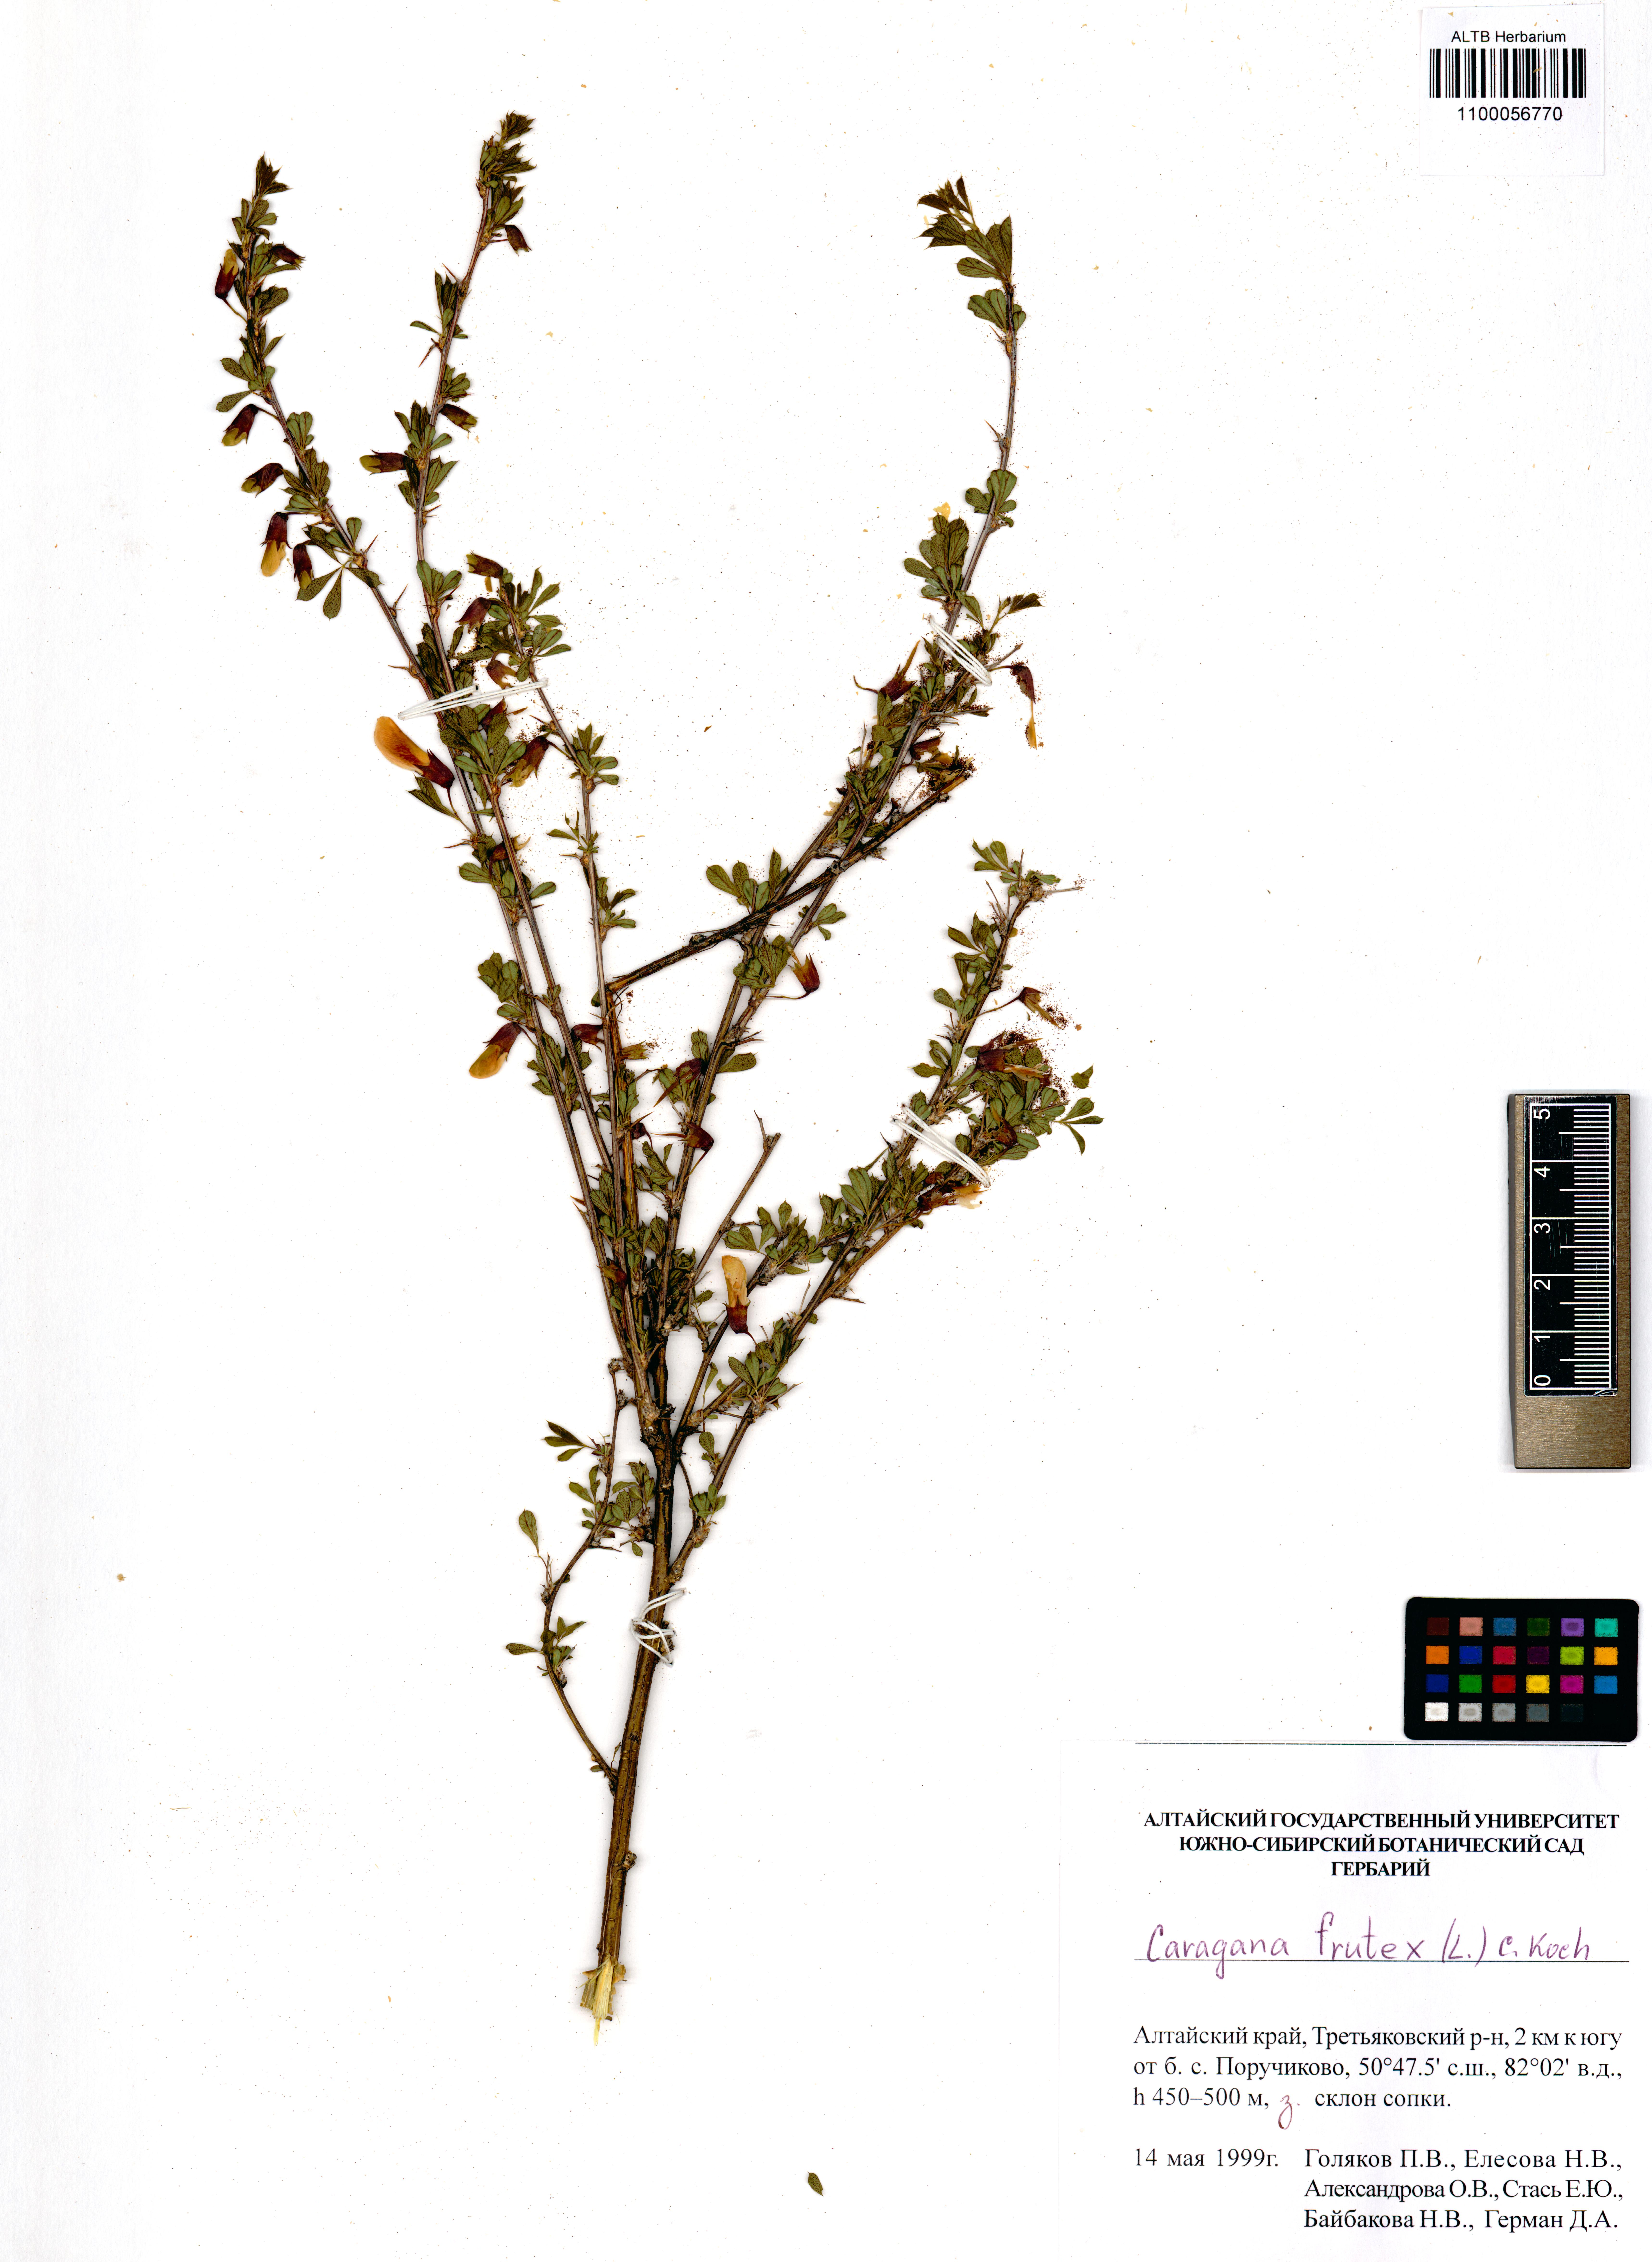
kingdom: Plantae
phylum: Tracheophyta
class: Magnoliopsida
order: Fabales
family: Fabaceae
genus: Caragana
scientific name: Caragana frutex
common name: Russian peashrub
